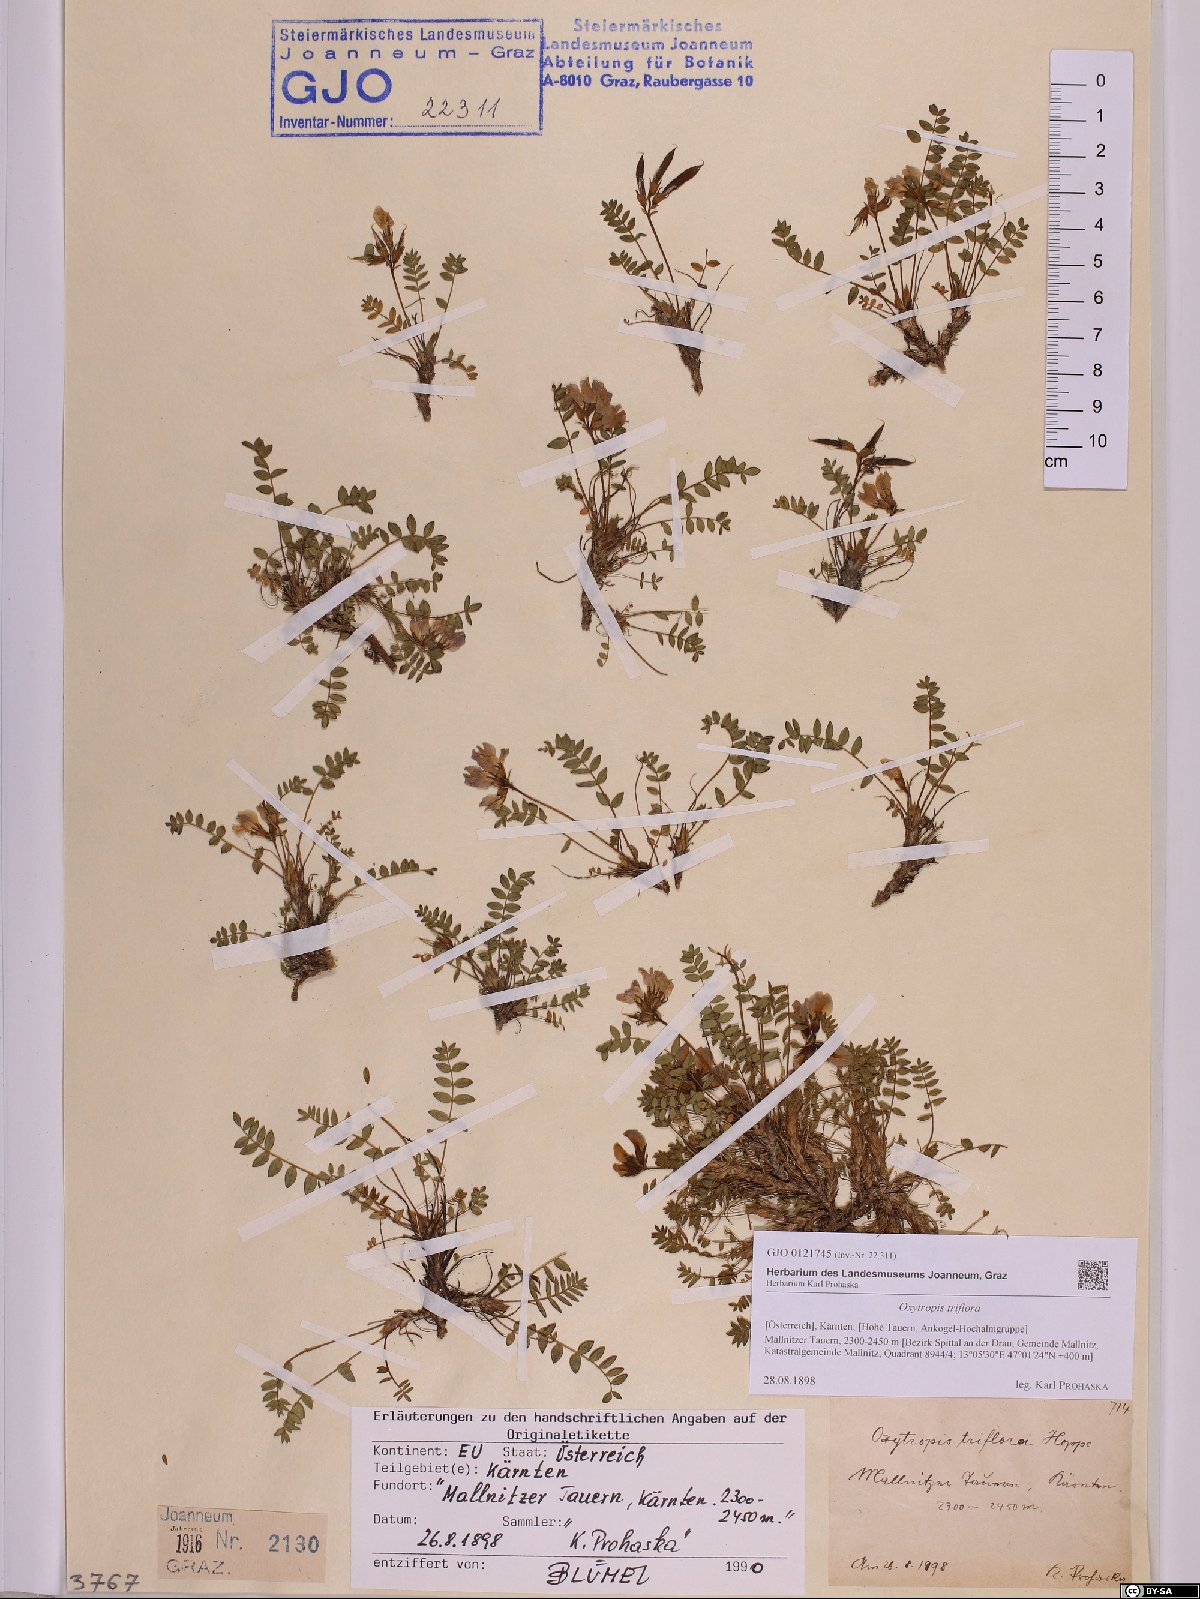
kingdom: Plantae
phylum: Tracheophyta
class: Magnoliopsida
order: Fabales
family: Fabaceae
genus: Oxytropis
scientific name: Oxytropis triflora
